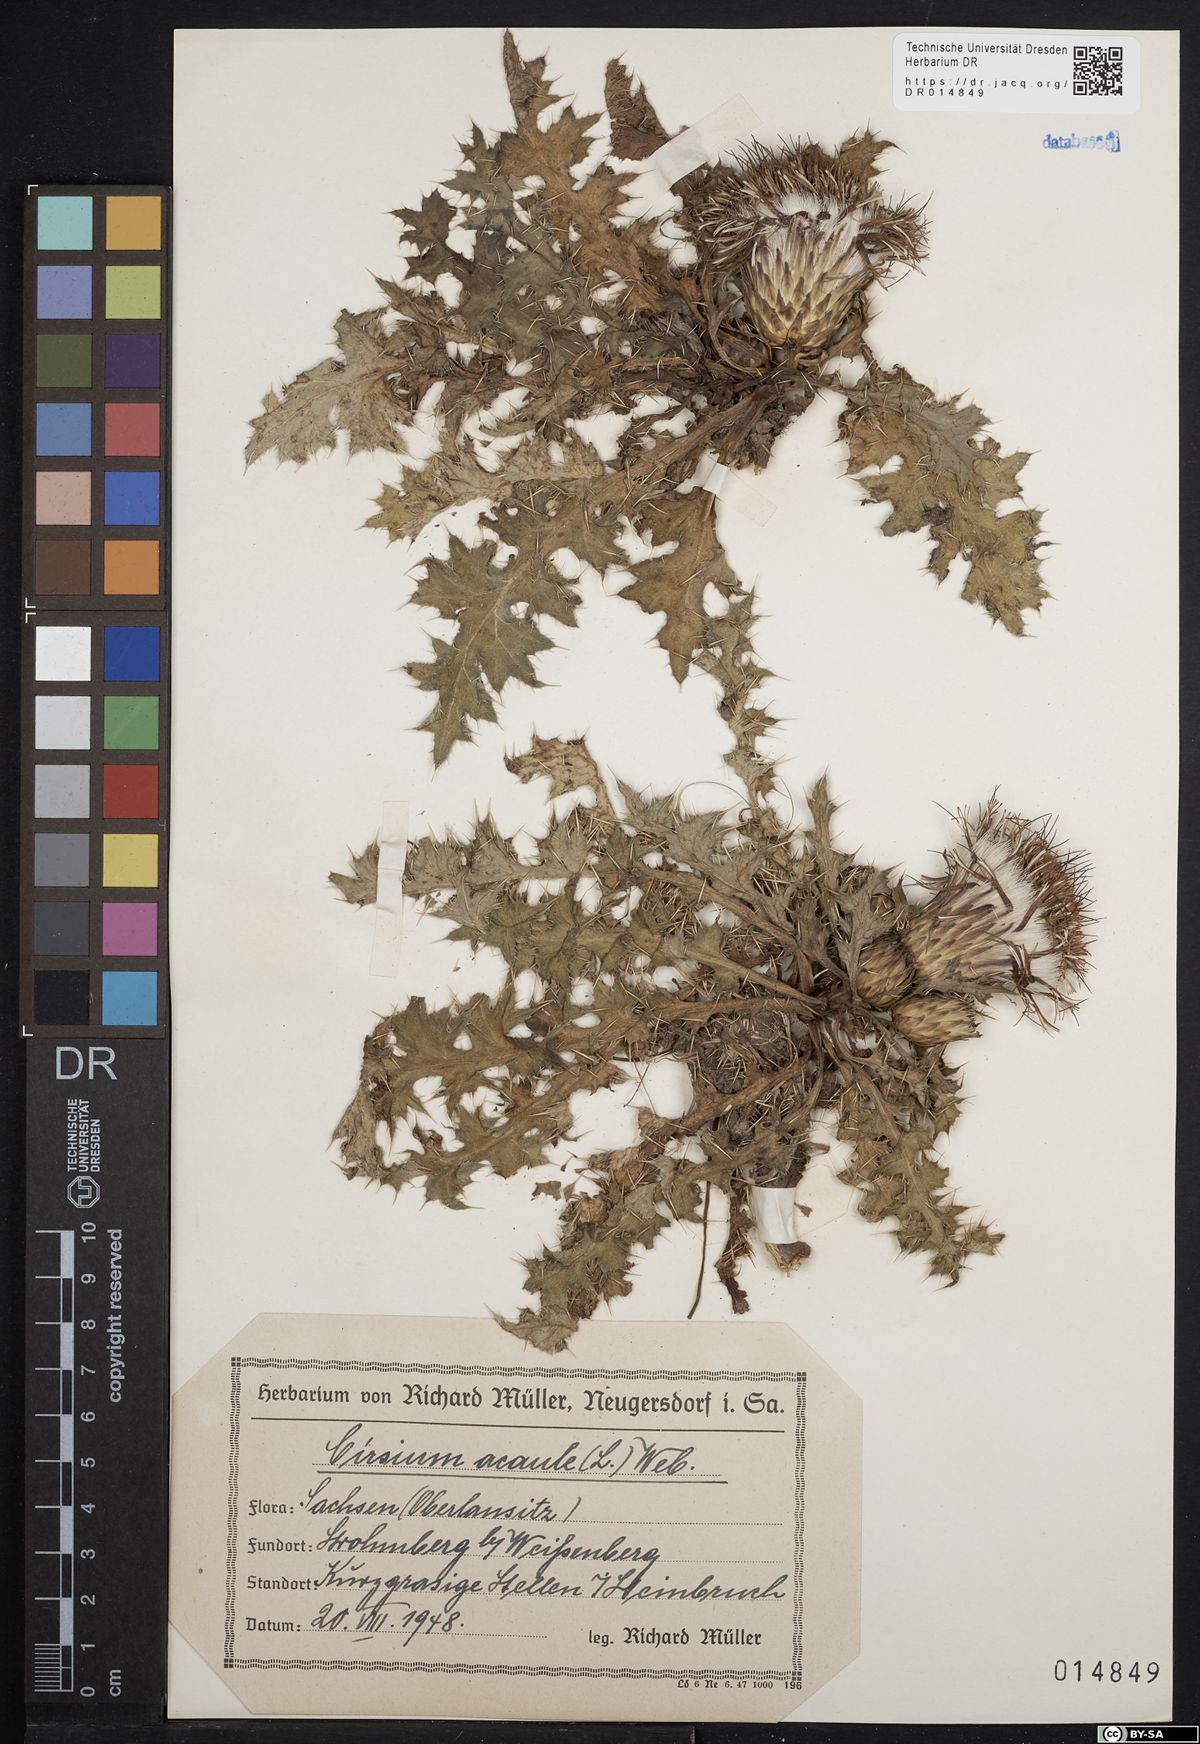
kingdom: Plantae
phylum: Tracheophyta
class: Magnoliopsida
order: Asterales
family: Asteraceae
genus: Cirsium
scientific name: Cirsium acaule
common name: Dwarf thistle
